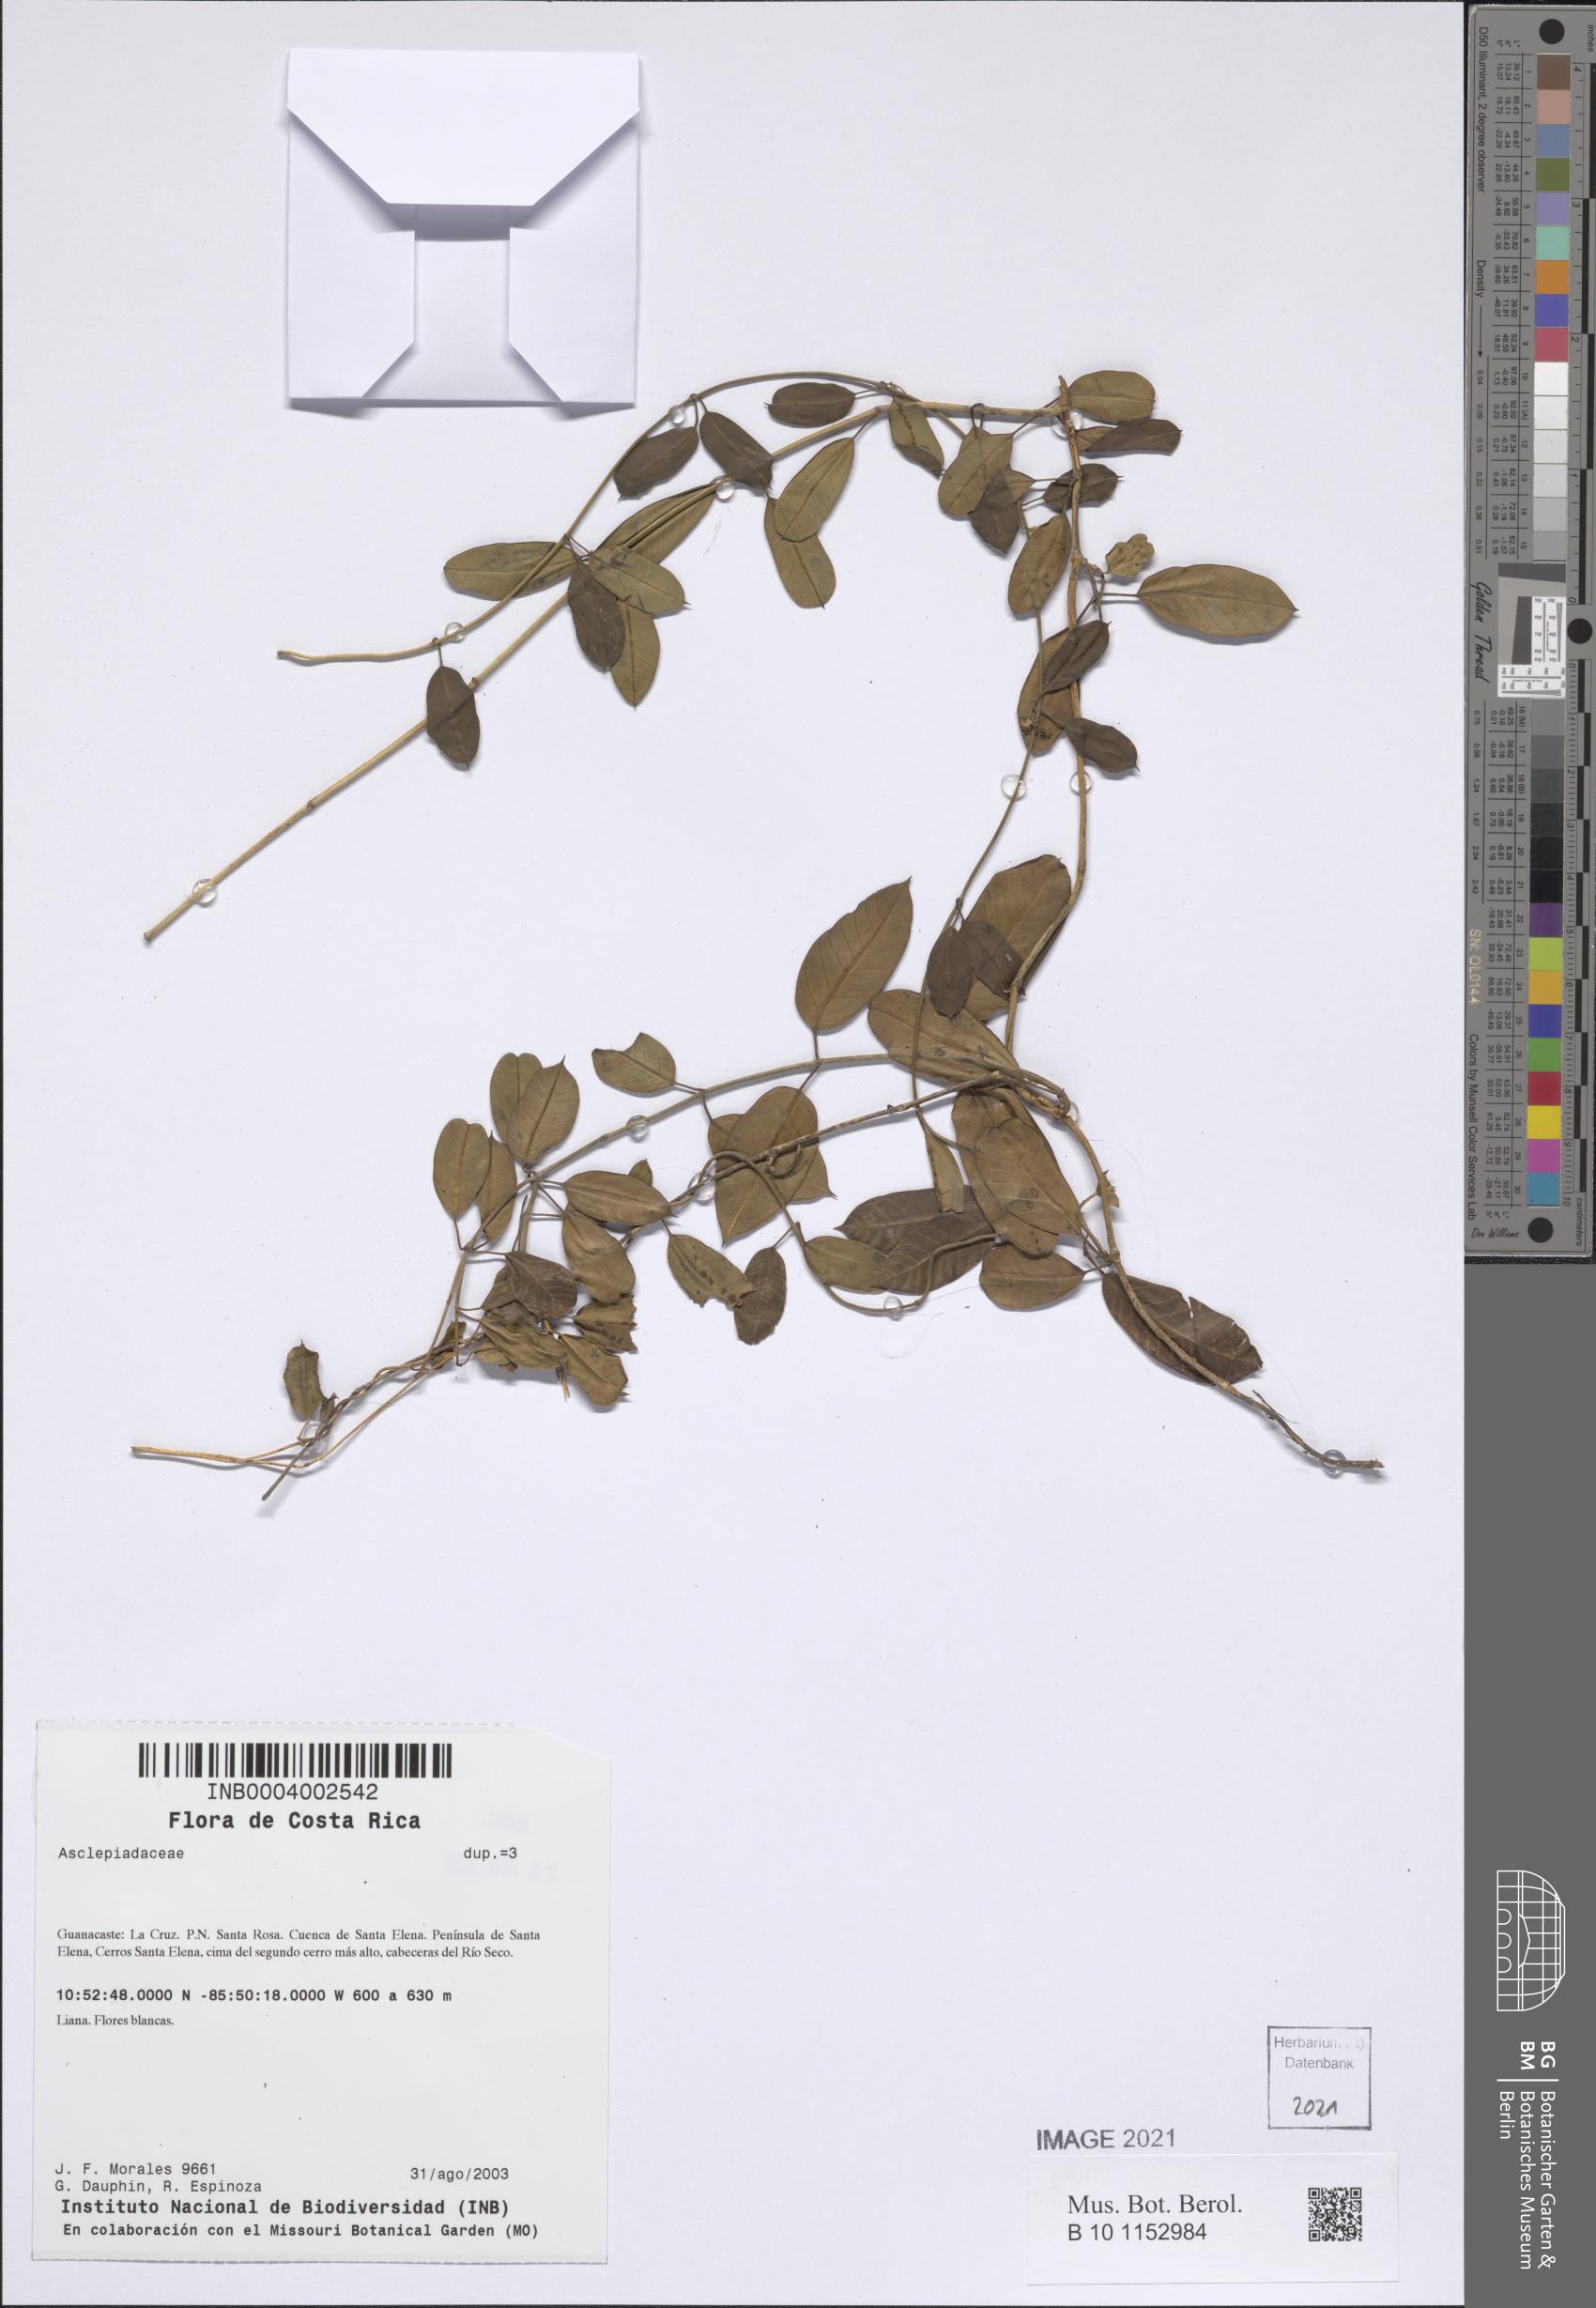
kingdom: Plantae
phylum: Tracheophyta
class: Magnoliopsida
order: Gentianales
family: Apocynaceae
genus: Metastelma
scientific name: Metastelma barbigerum
